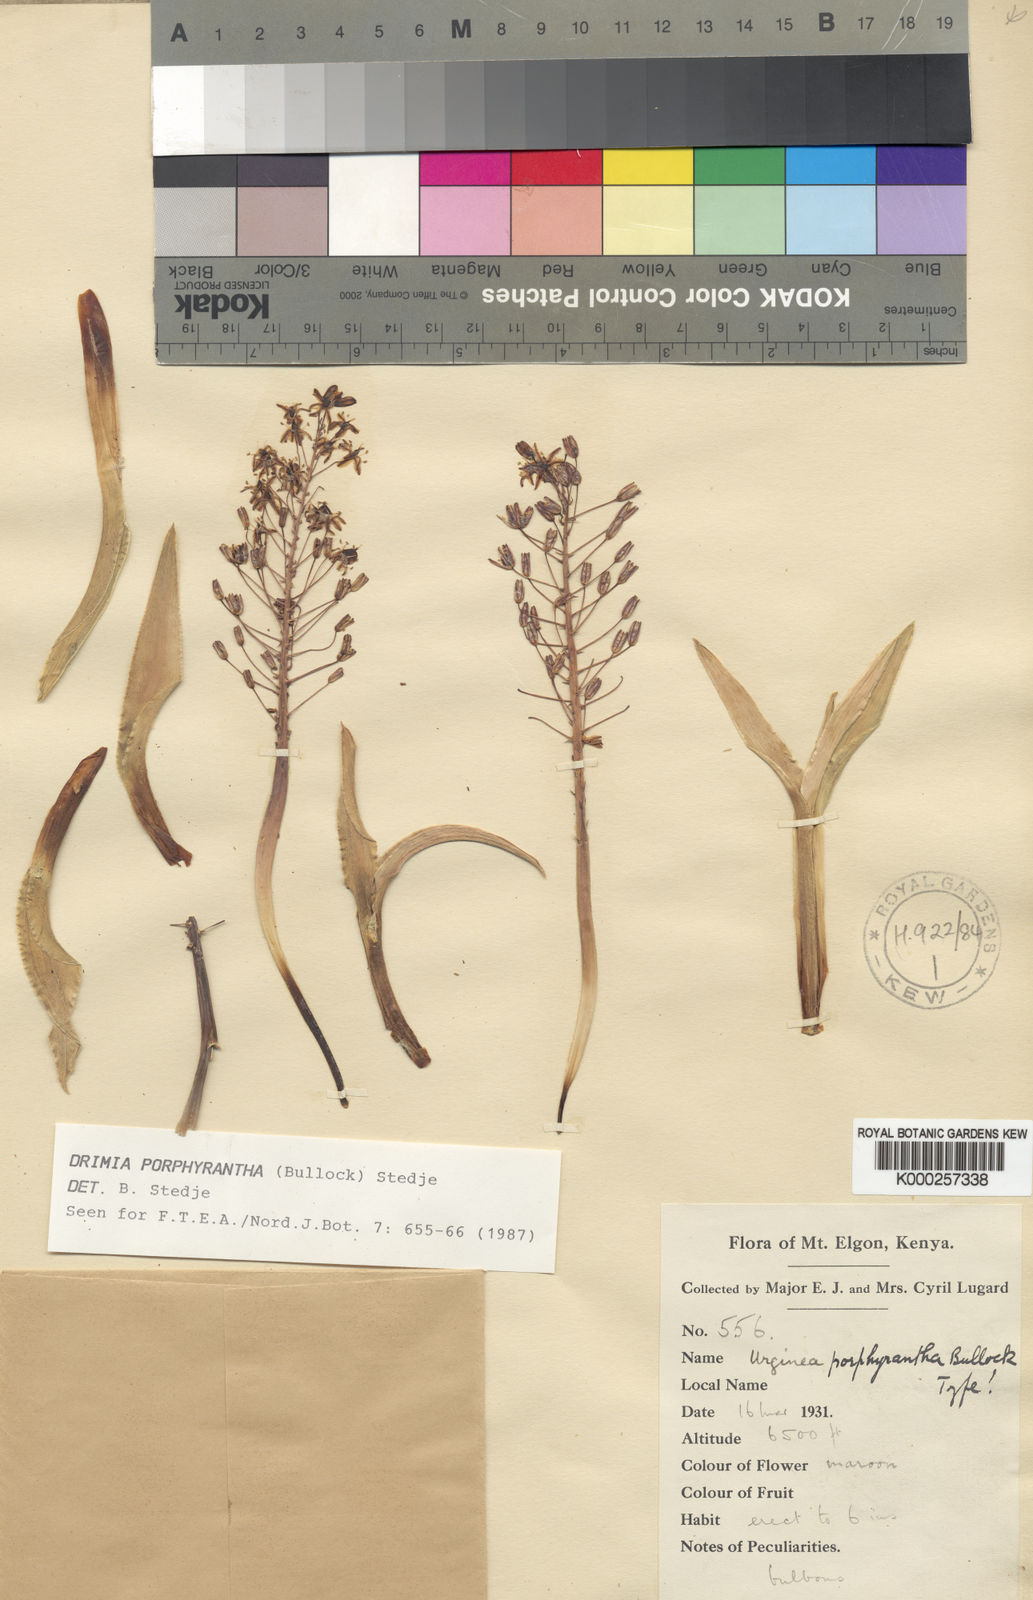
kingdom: Plantae
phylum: Tracheophyta
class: Liliopsida
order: Asparagales
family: Asparagaceae
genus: Drimia
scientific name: Drimia porphyrantha
